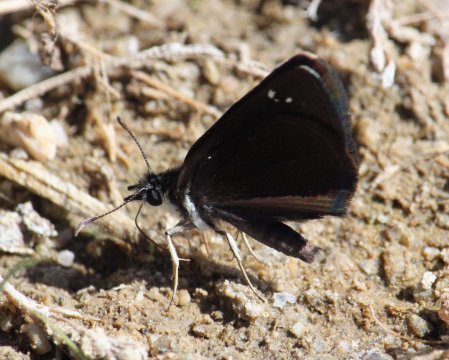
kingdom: Animalia
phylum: Arthropoda
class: Insecta
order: Lepidoptera
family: Hesperiidae
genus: Pholisora
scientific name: Pholisora catullus
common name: Common Sootywing
